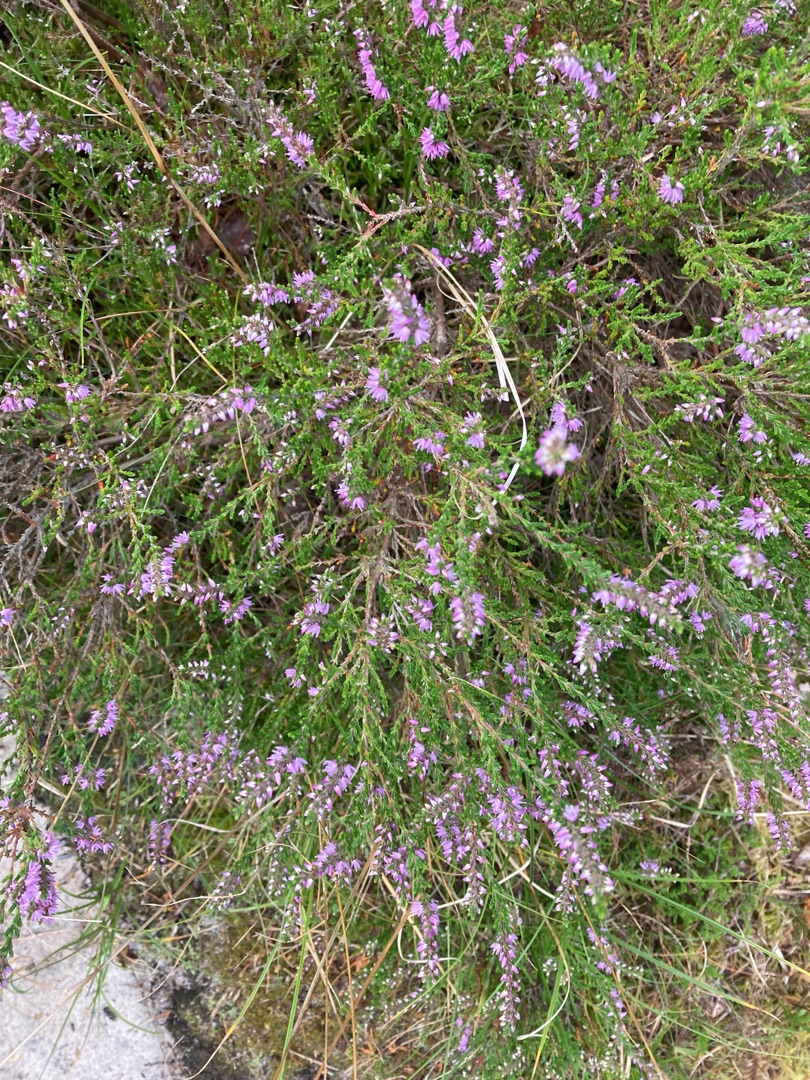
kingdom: Plantae
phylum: Tracheophyta
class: Magnoliopsida
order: Ericales
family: Ericaceae
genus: Calluna
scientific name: Calluna vulgaris
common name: Hedelyng
